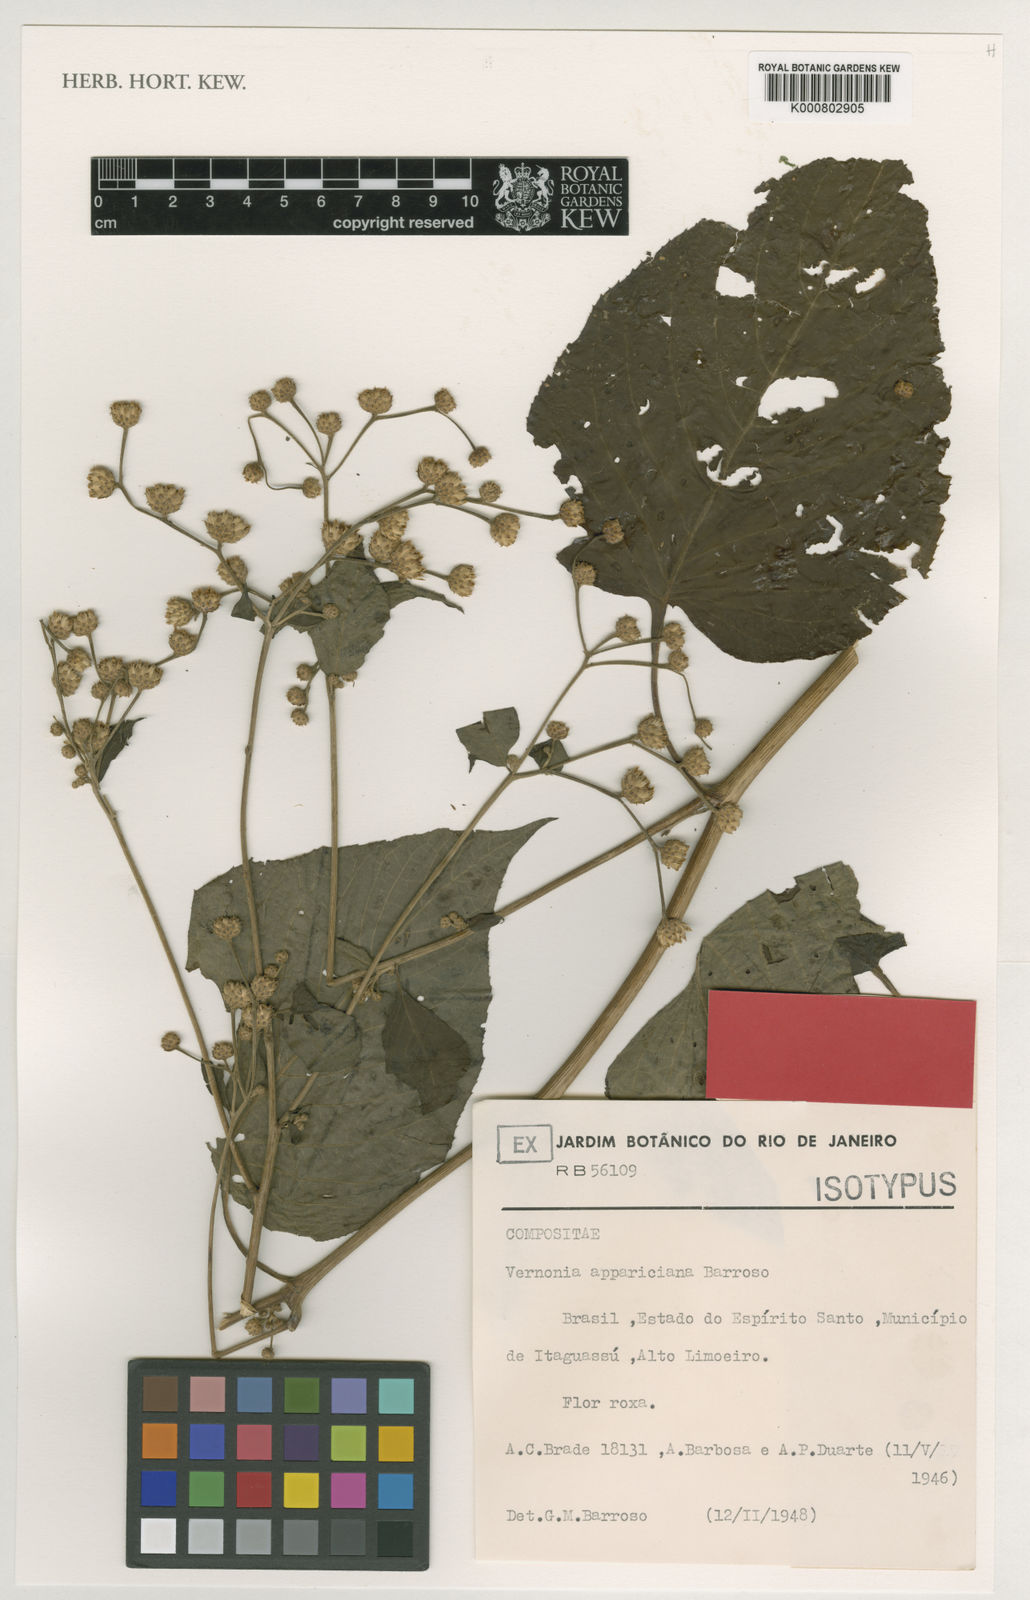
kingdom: Plantae
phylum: Tracheophyta
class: Magnoliopsida
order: Asterales
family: Asteraceae
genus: Vernonia
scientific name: Vernonia appariciana
